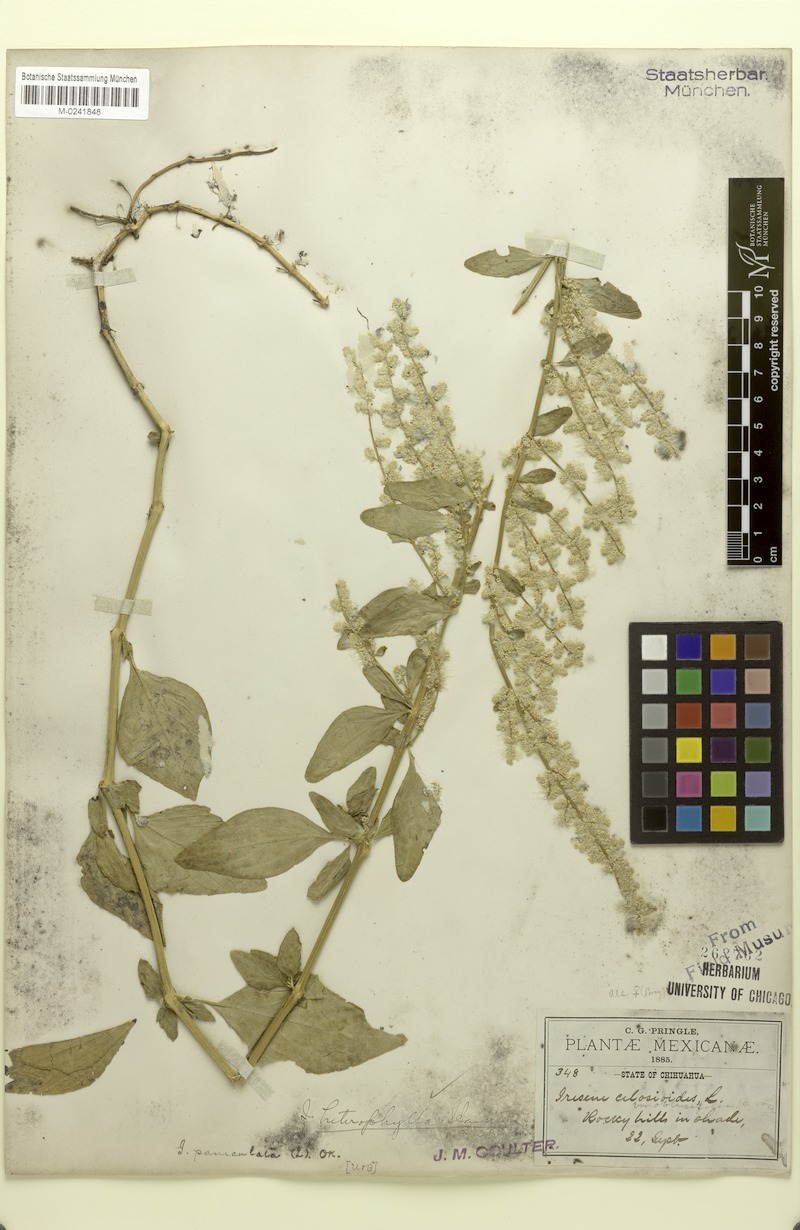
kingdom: Plantae
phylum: Tracheophyta
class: Magnoliopsida
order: Caryophyllales
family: Amaranthaceae
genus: Iresine
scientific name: Iresine heterophylla
